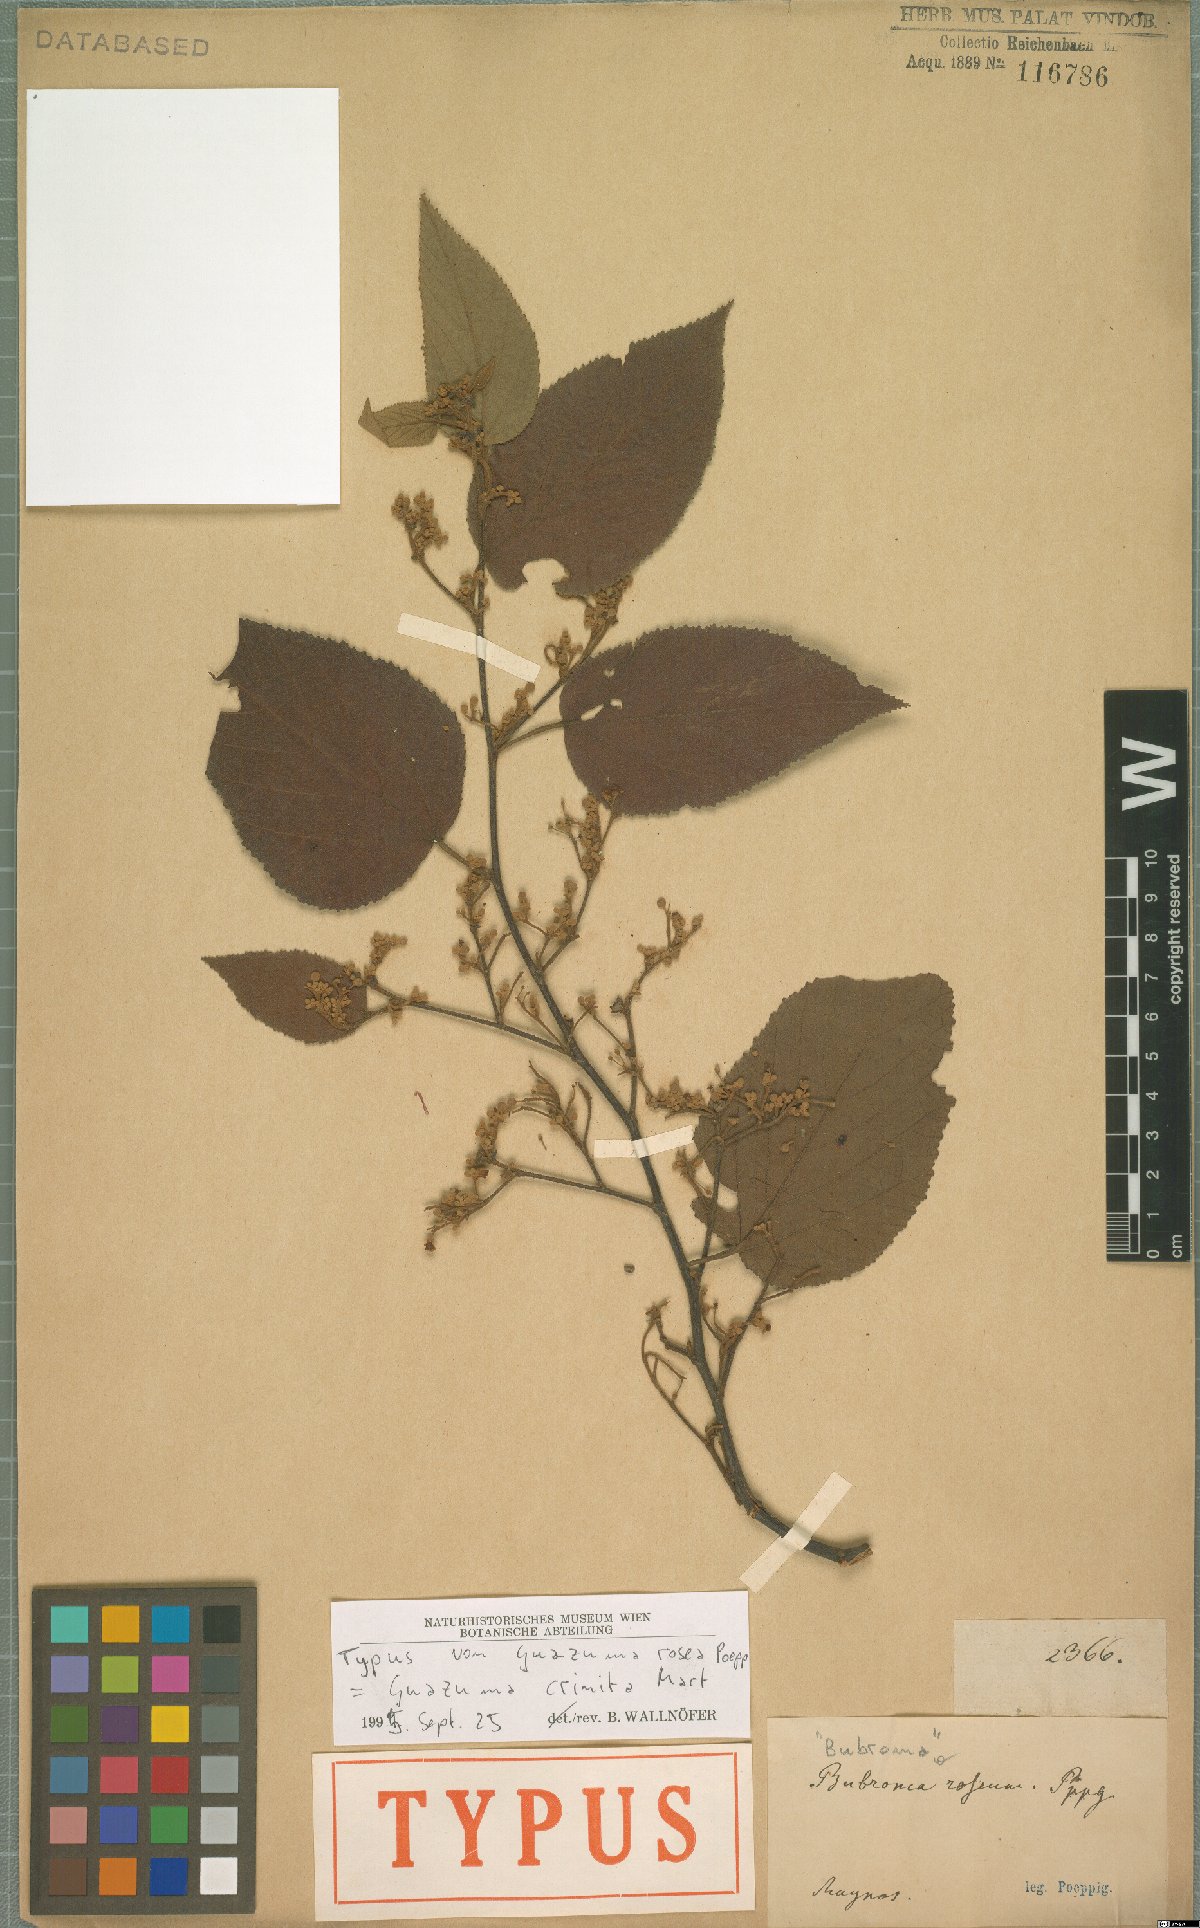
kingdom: Plantae
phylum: Tracheophyta
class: Magnoliopsida
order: Malvales
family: Malvaceae
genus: Guazuma
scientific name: Guazuma crinita
